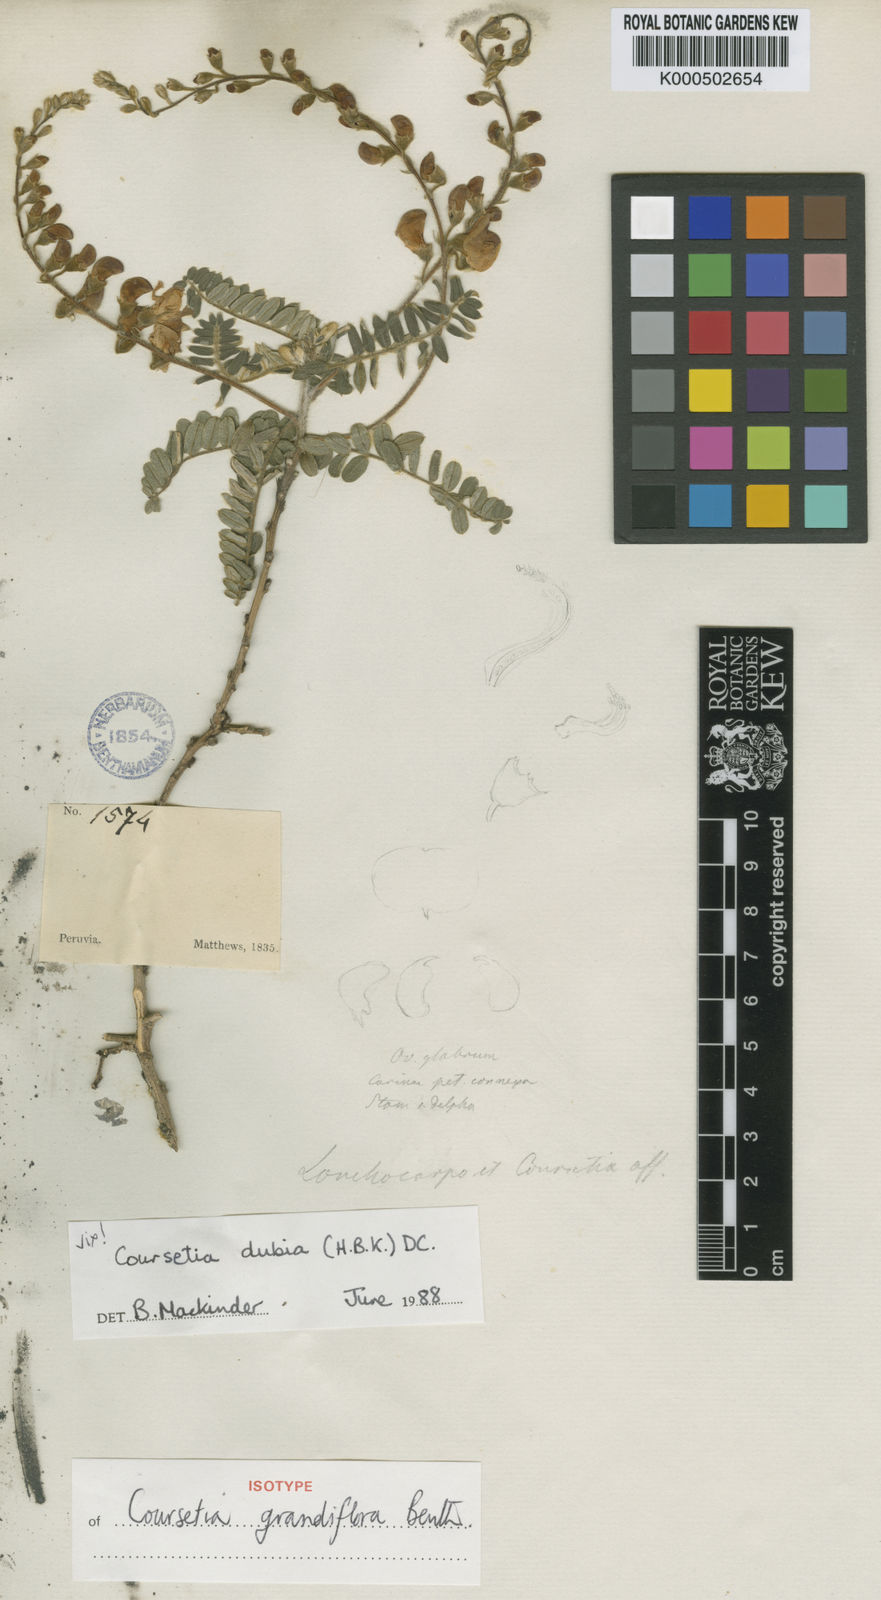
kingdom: Plantae
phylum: Tracheophyta
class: Magnoliopsida
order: Fabales
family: Fabaceae
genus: Coursetia
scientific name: Coursetia
